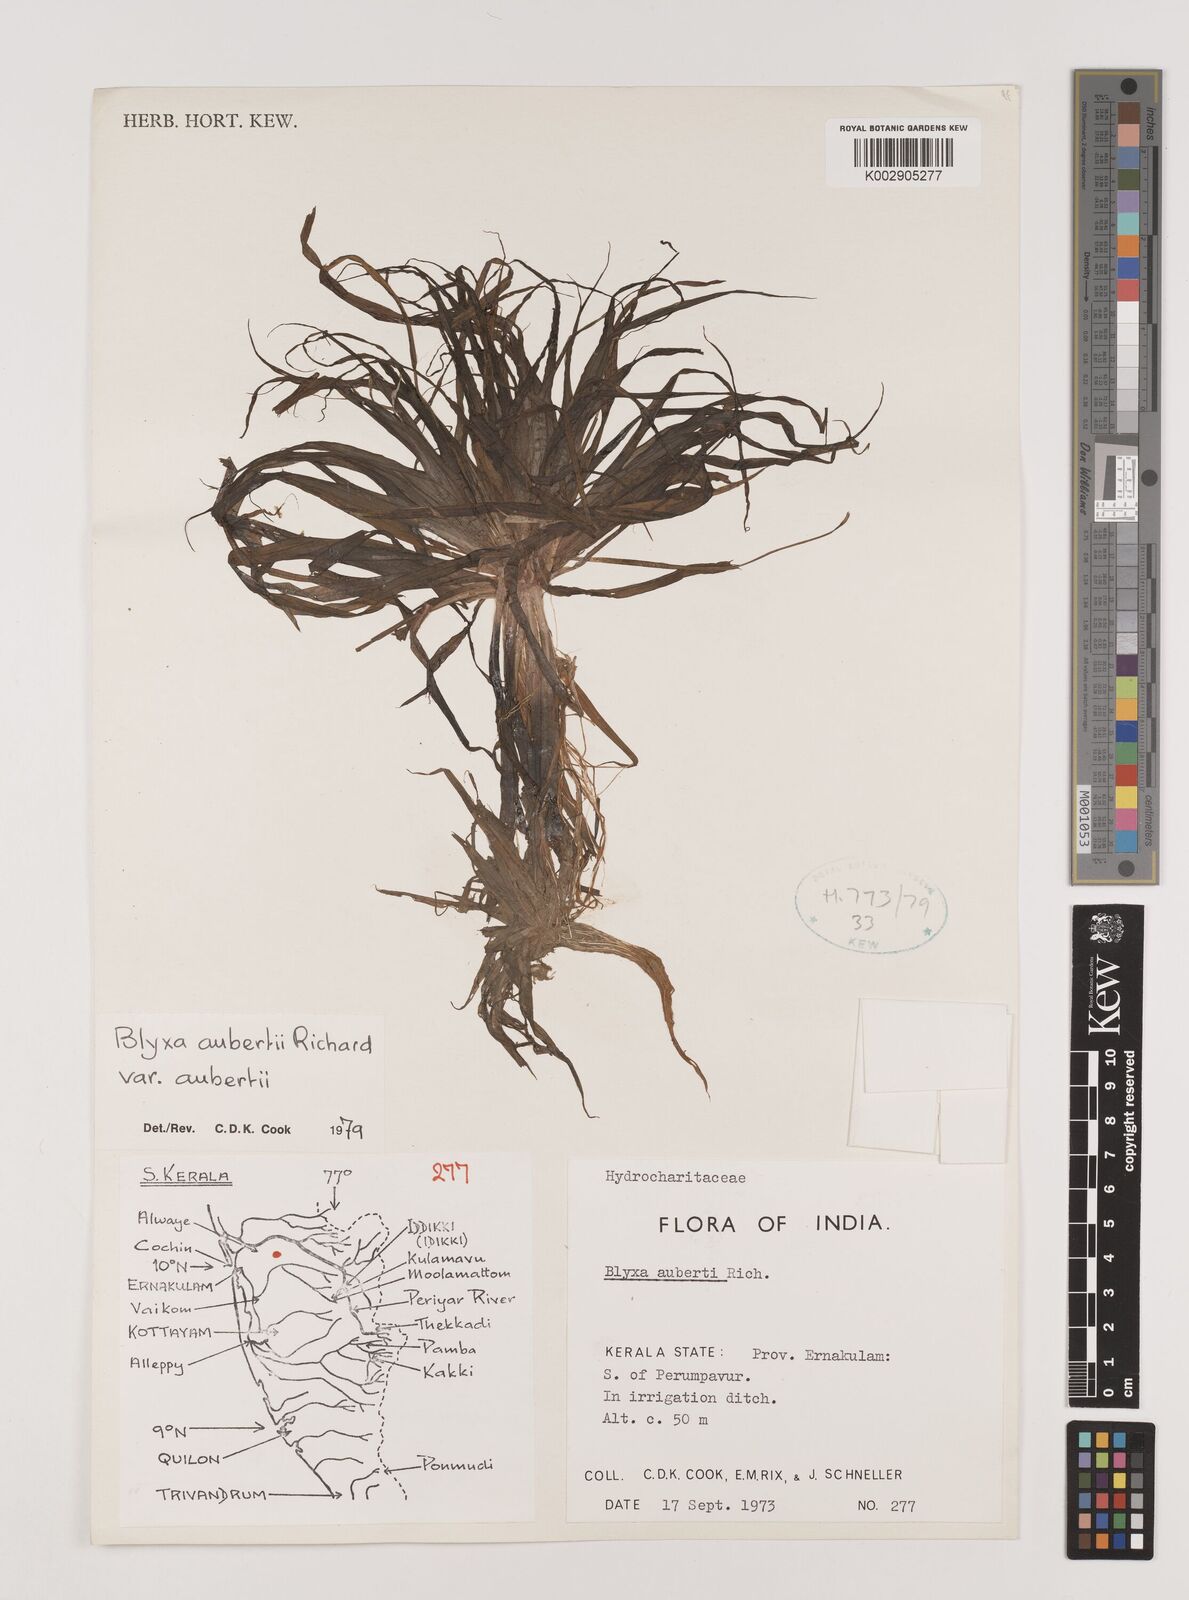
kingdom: Plantae
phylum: Tracheophyta
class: Liliopsida
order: Alismatales
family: Hydrocharitaceae
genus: Blyxa
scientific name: Blyxa aubertii
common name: Roundfruit blyxa
